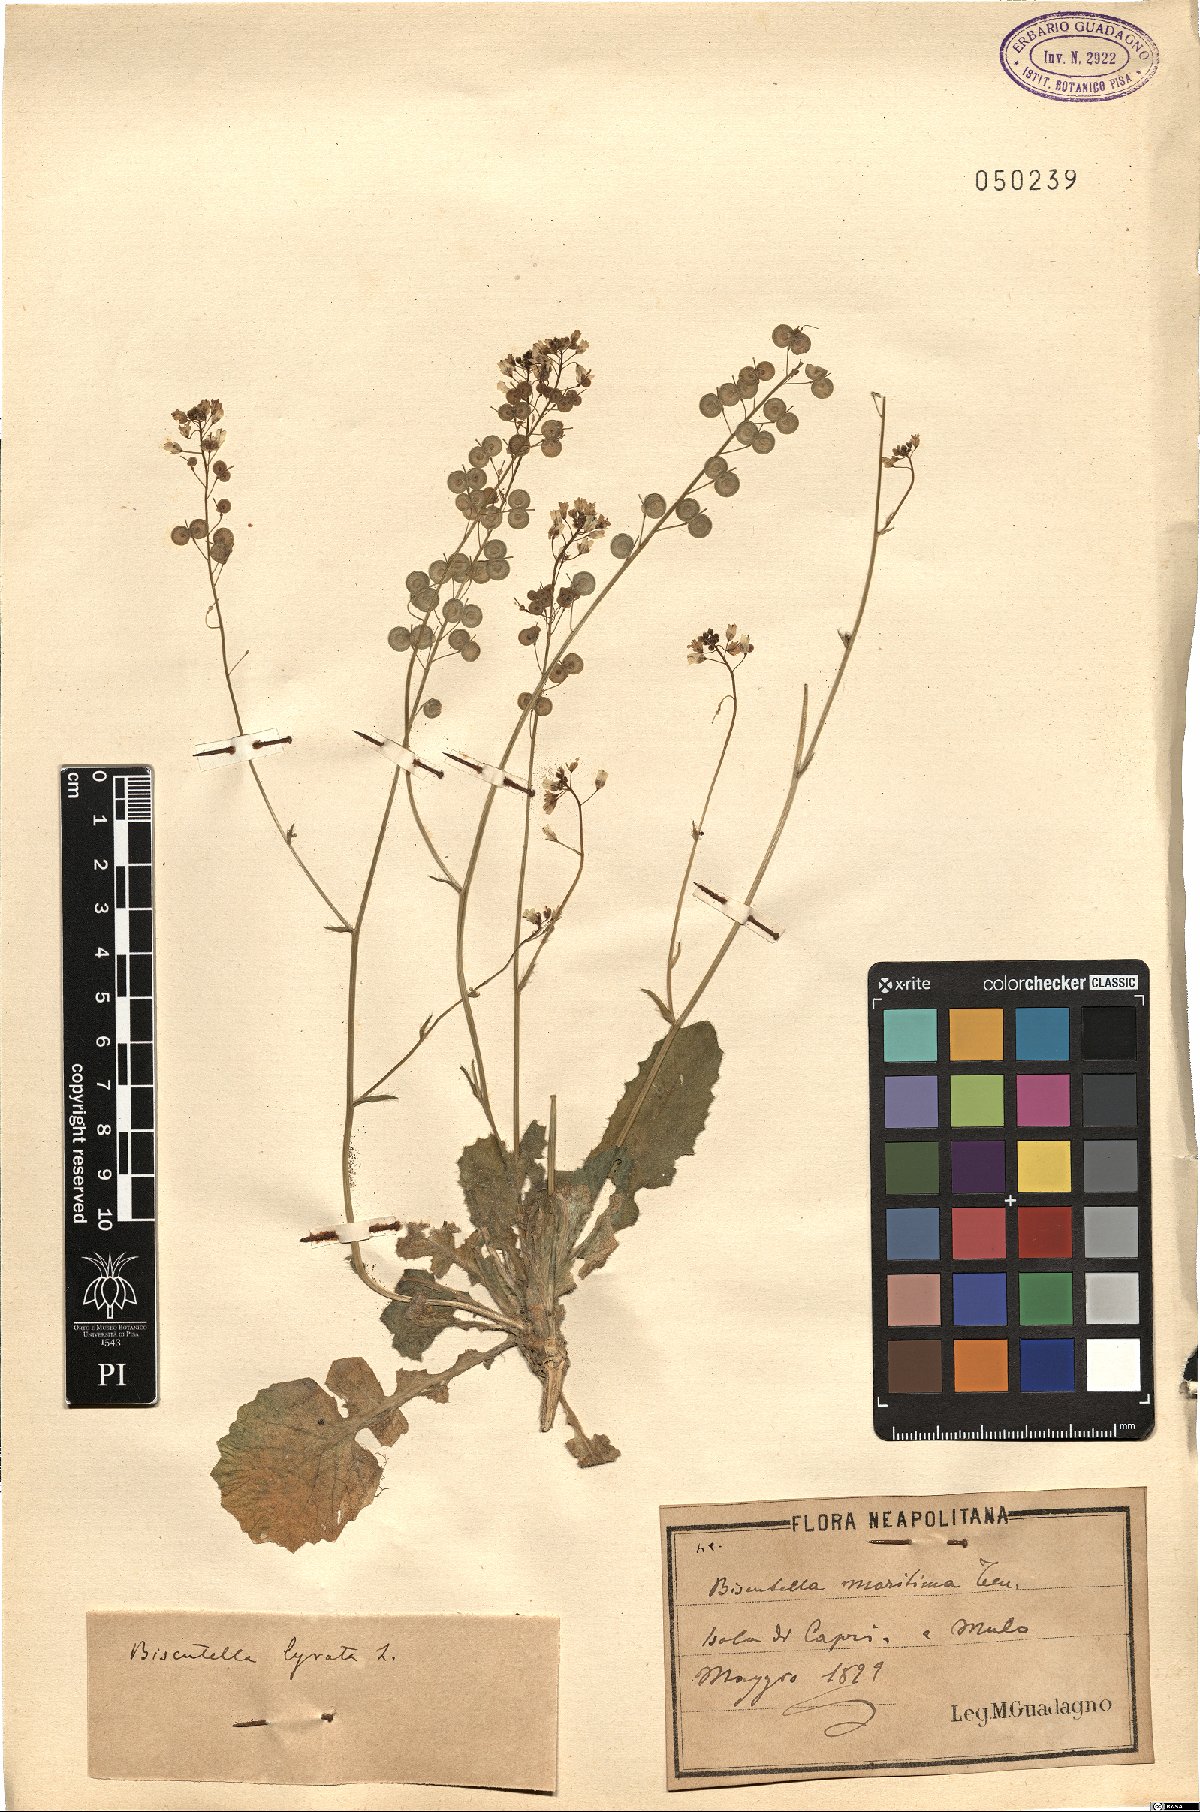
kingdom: Plantae
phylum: Tracheophyta
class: Magnoliopsida
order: Brassicales
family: Brassicaceae
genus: Biscutella
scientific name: Biscutella lyrata
